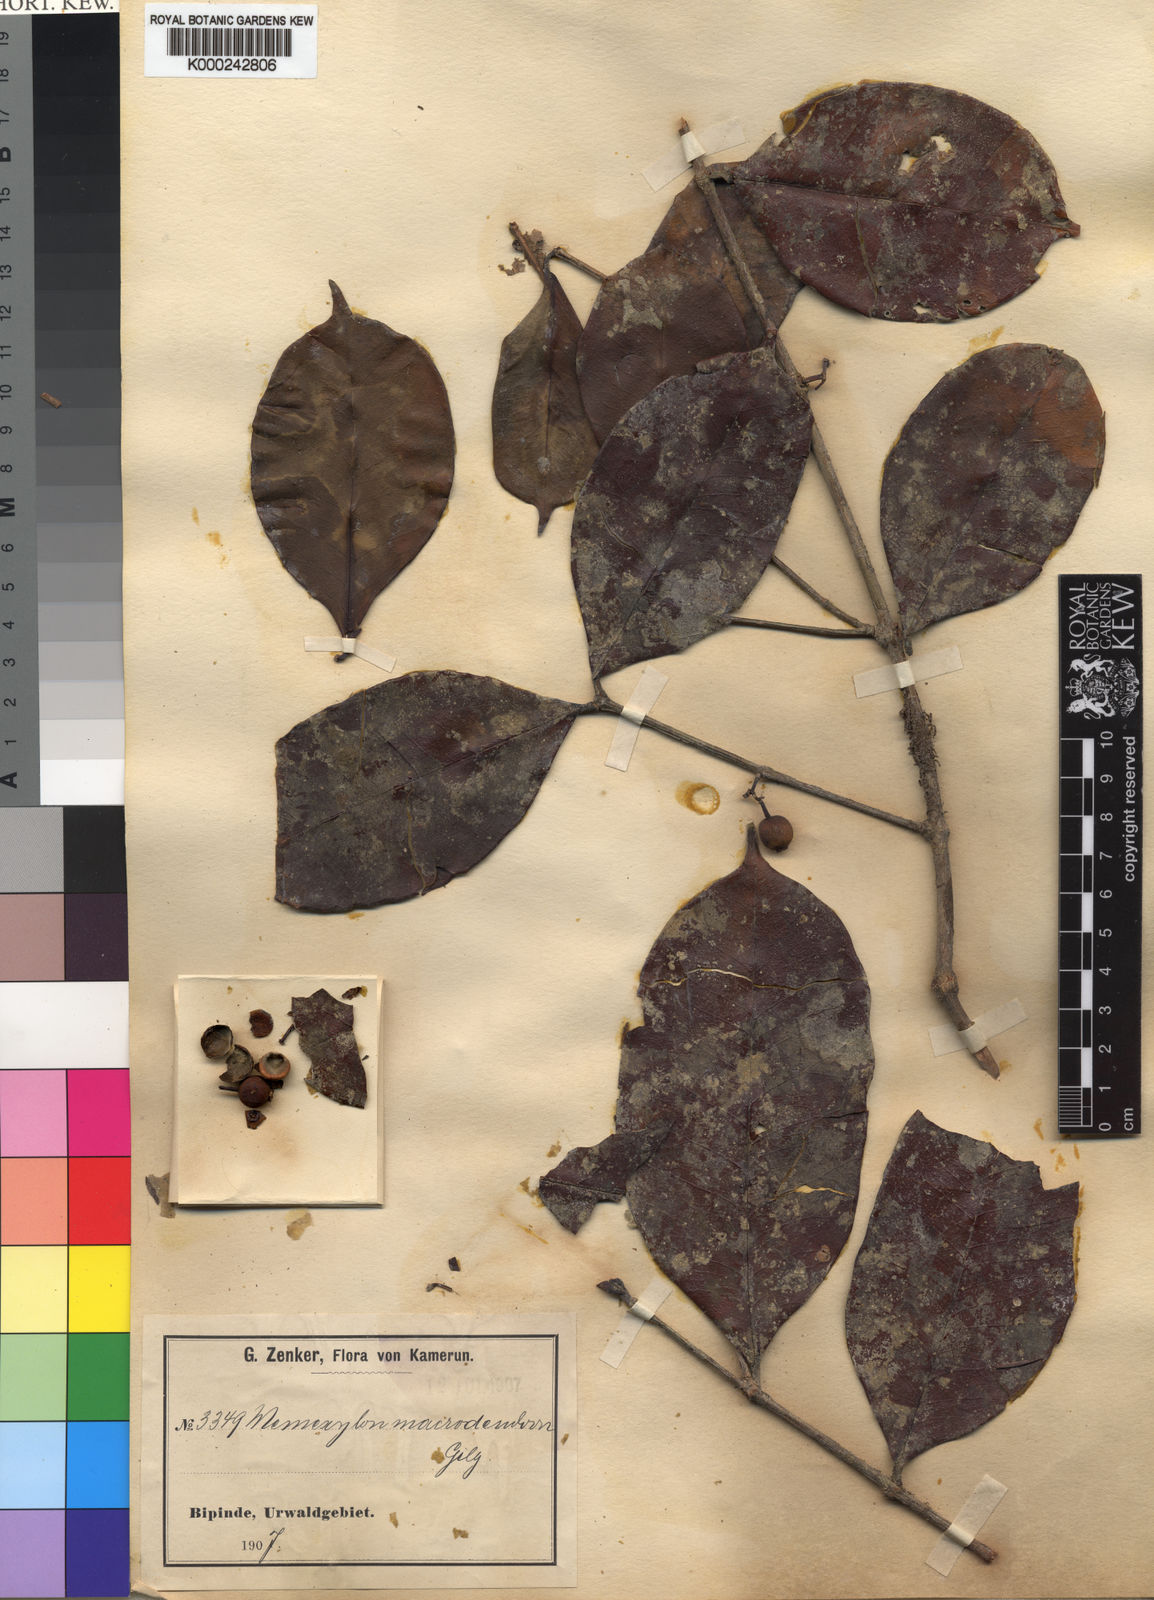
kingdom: Plantae
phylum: Tracheophyta
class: Magnoliopsida
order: Myrtales
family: Melastomataceae
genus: Memecylon
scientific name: Memecylon macrodendron
